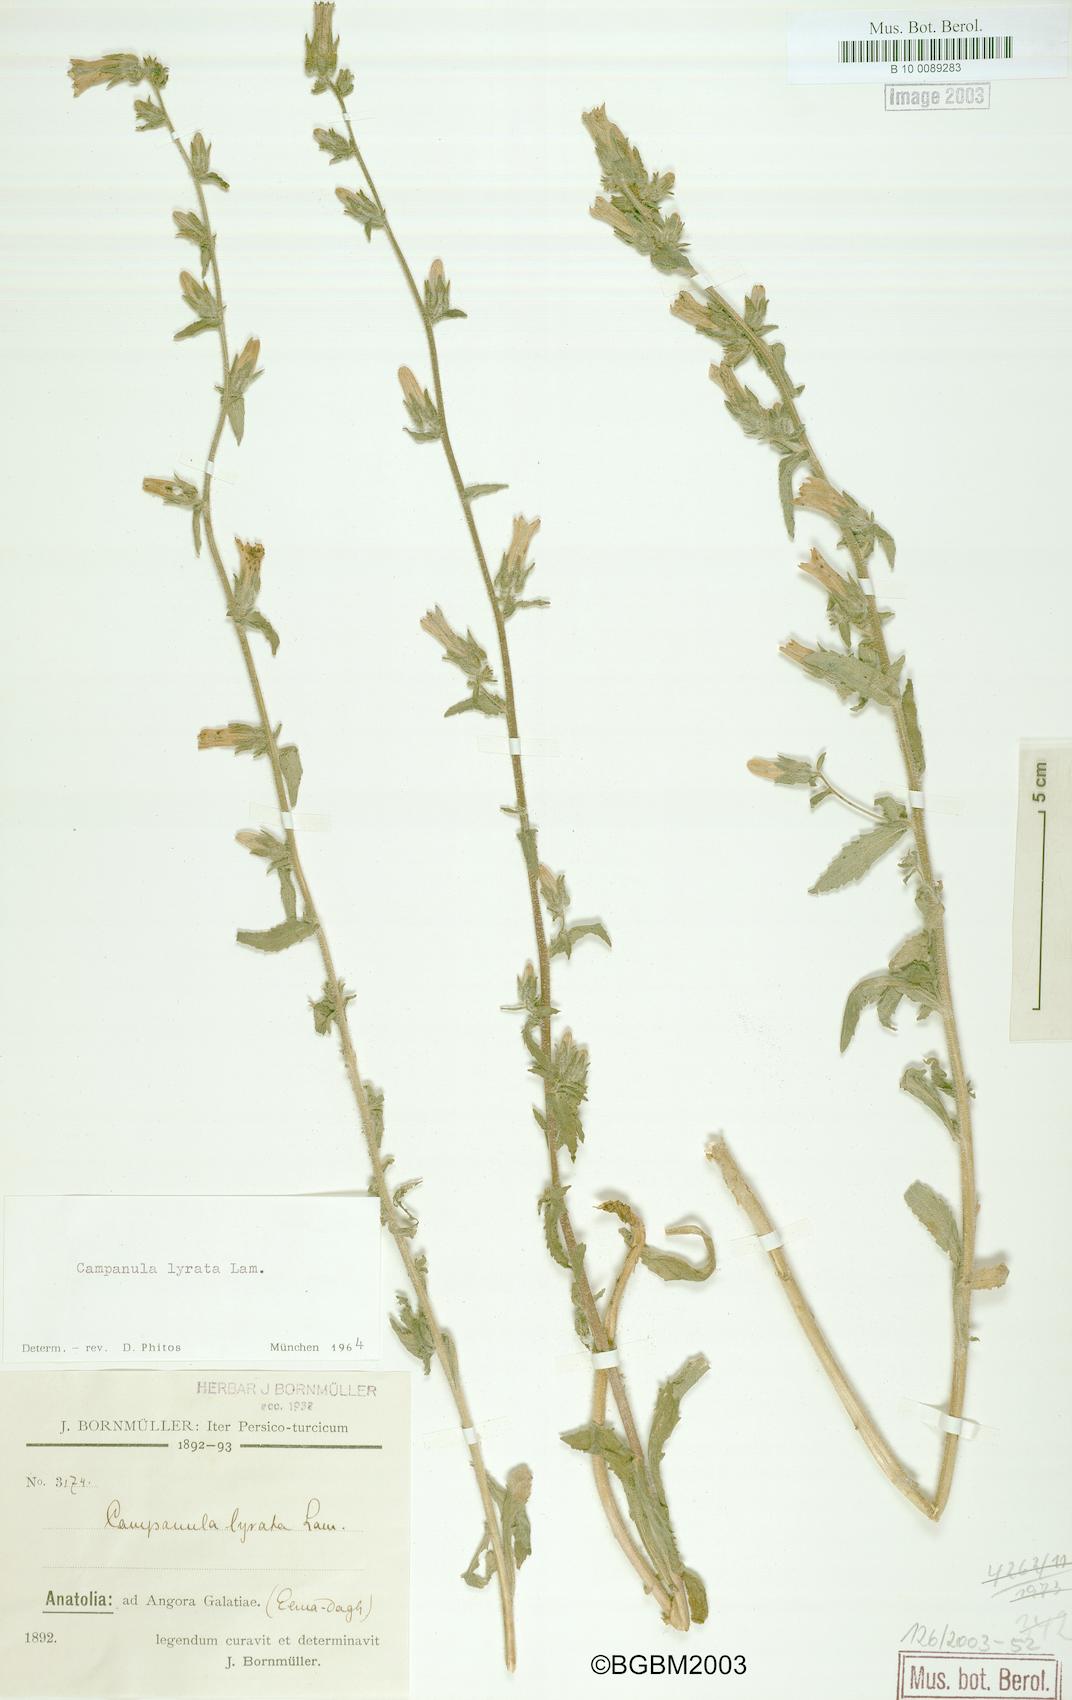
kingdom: Plantae
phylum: Tracheophyta
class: Magnoliopsida
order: Asterales
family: Campanulaceae
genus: Campanula
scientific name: Campanula lyrata
